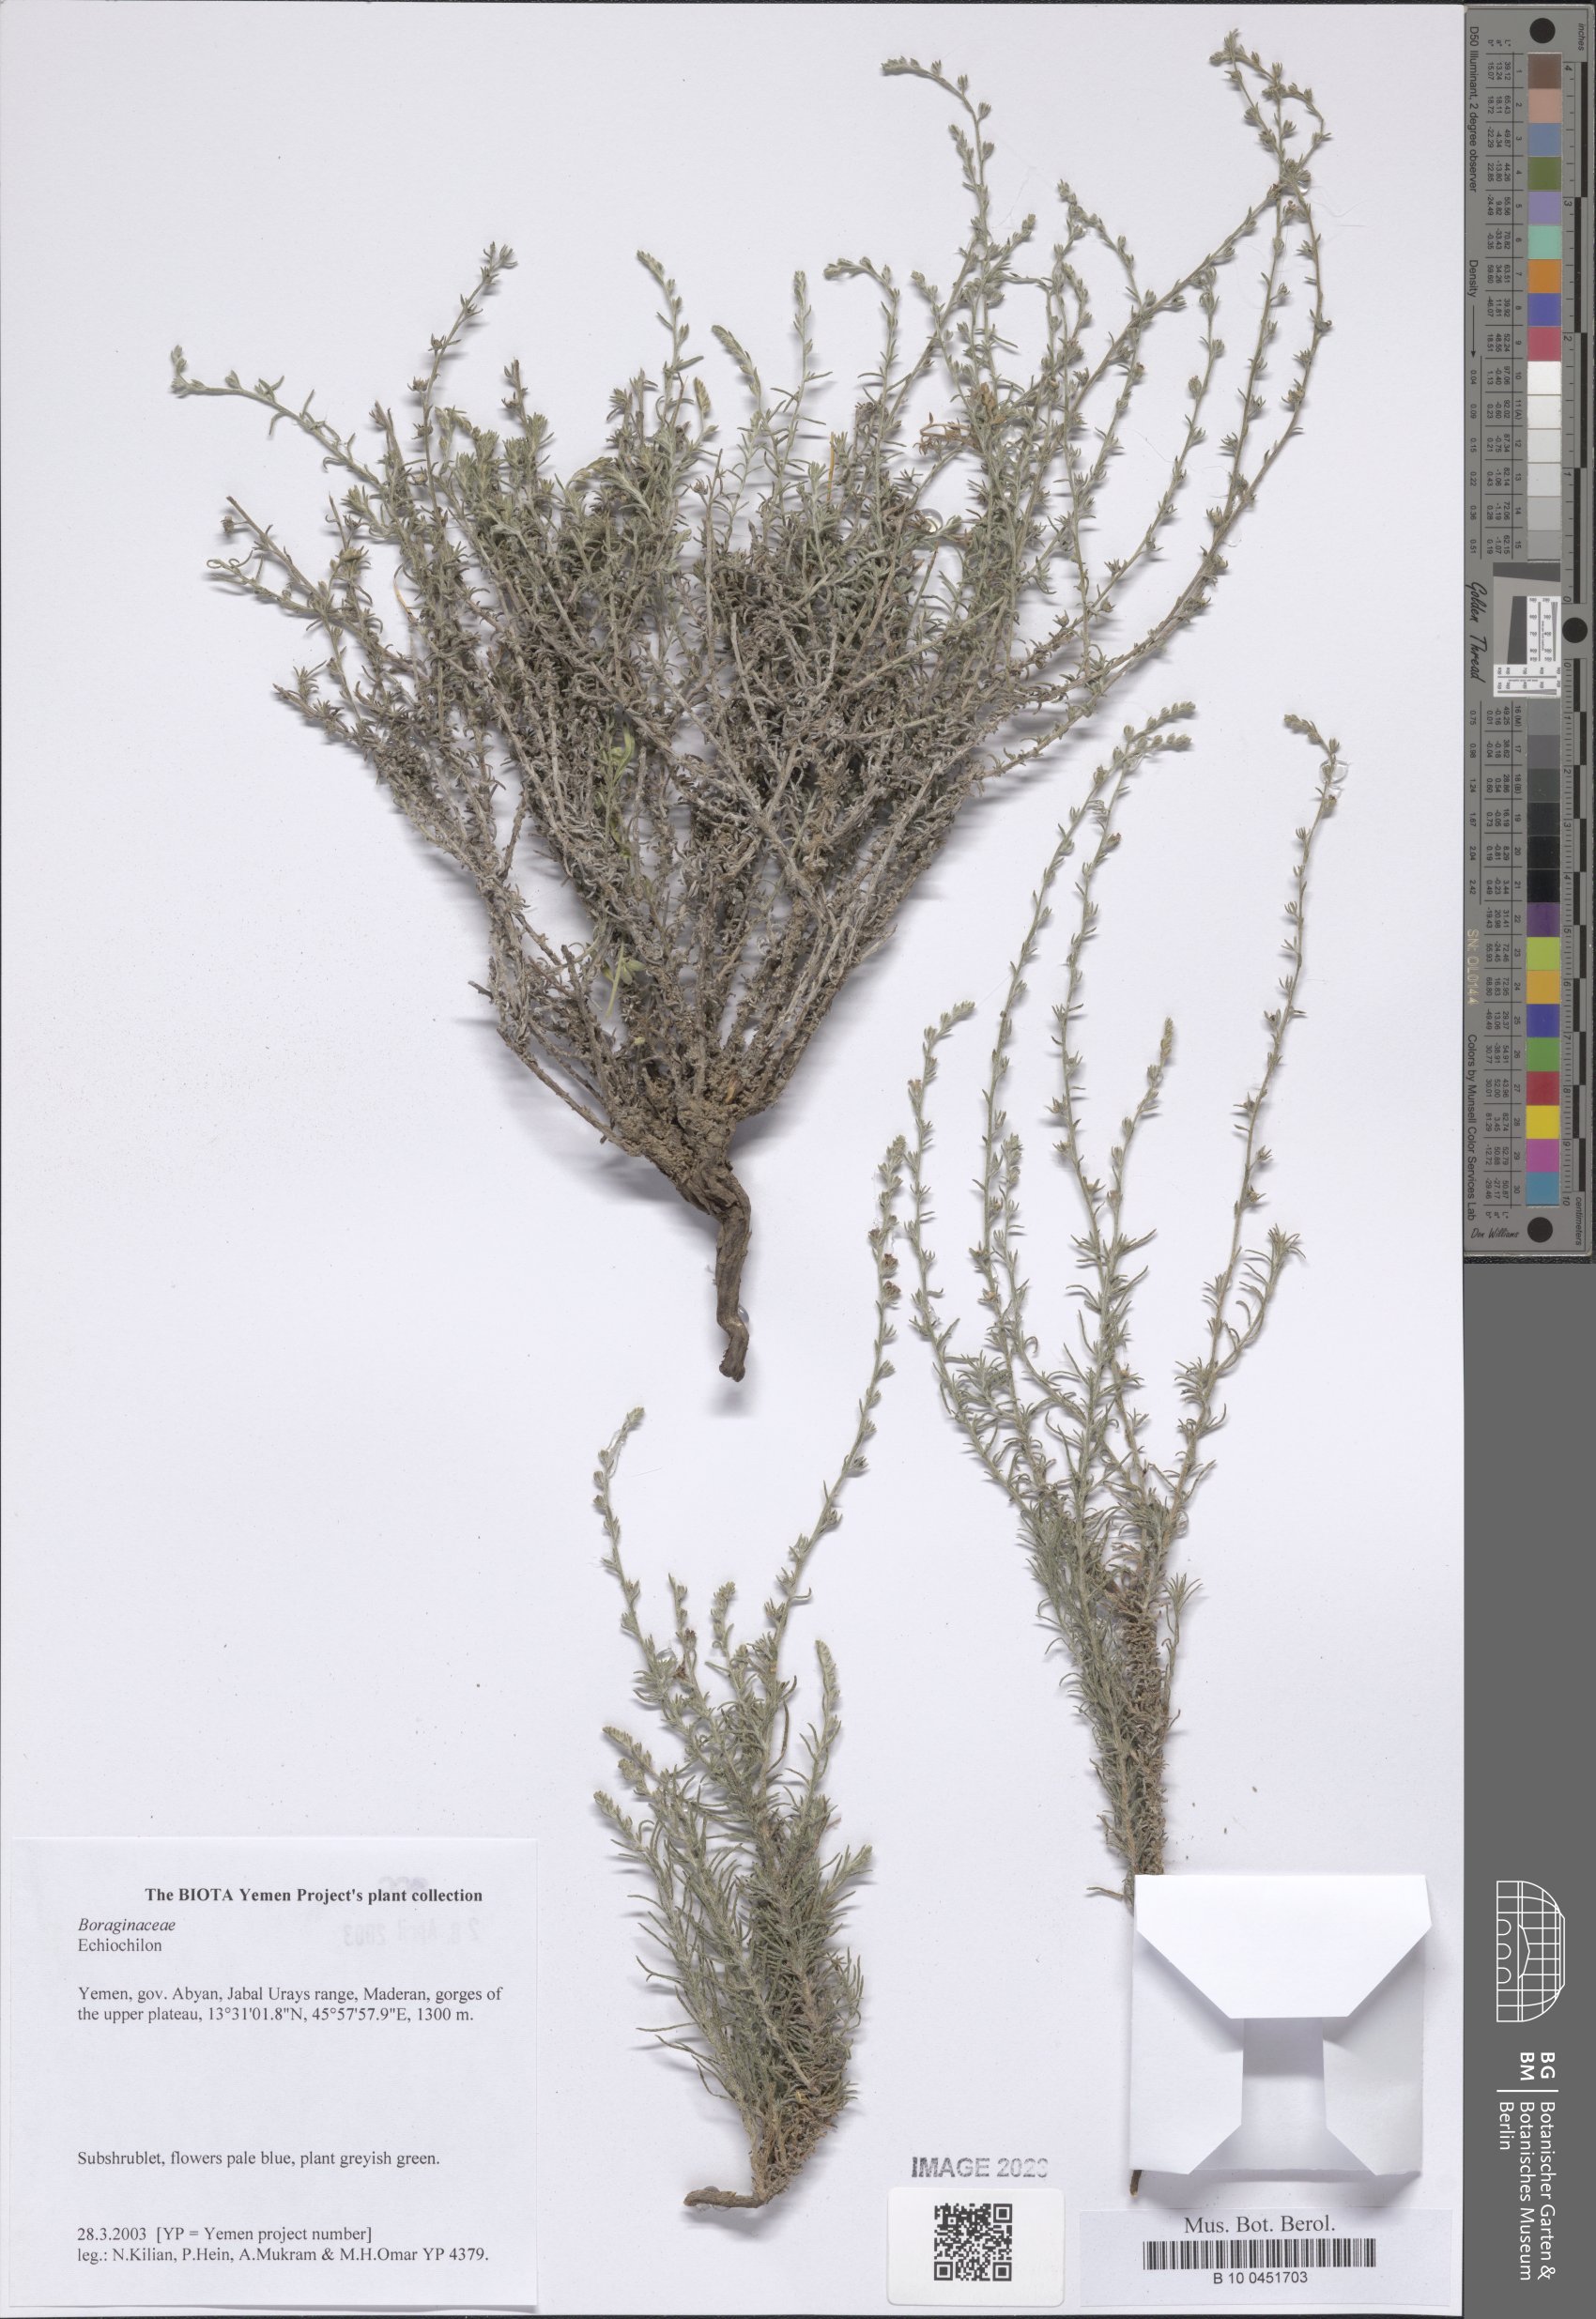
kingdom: Plantae
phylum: Tracheophyta
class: Magnoliopsida
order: Boraginales
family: Boraginaceae
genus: Echiochilon
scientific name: Echiochilon
